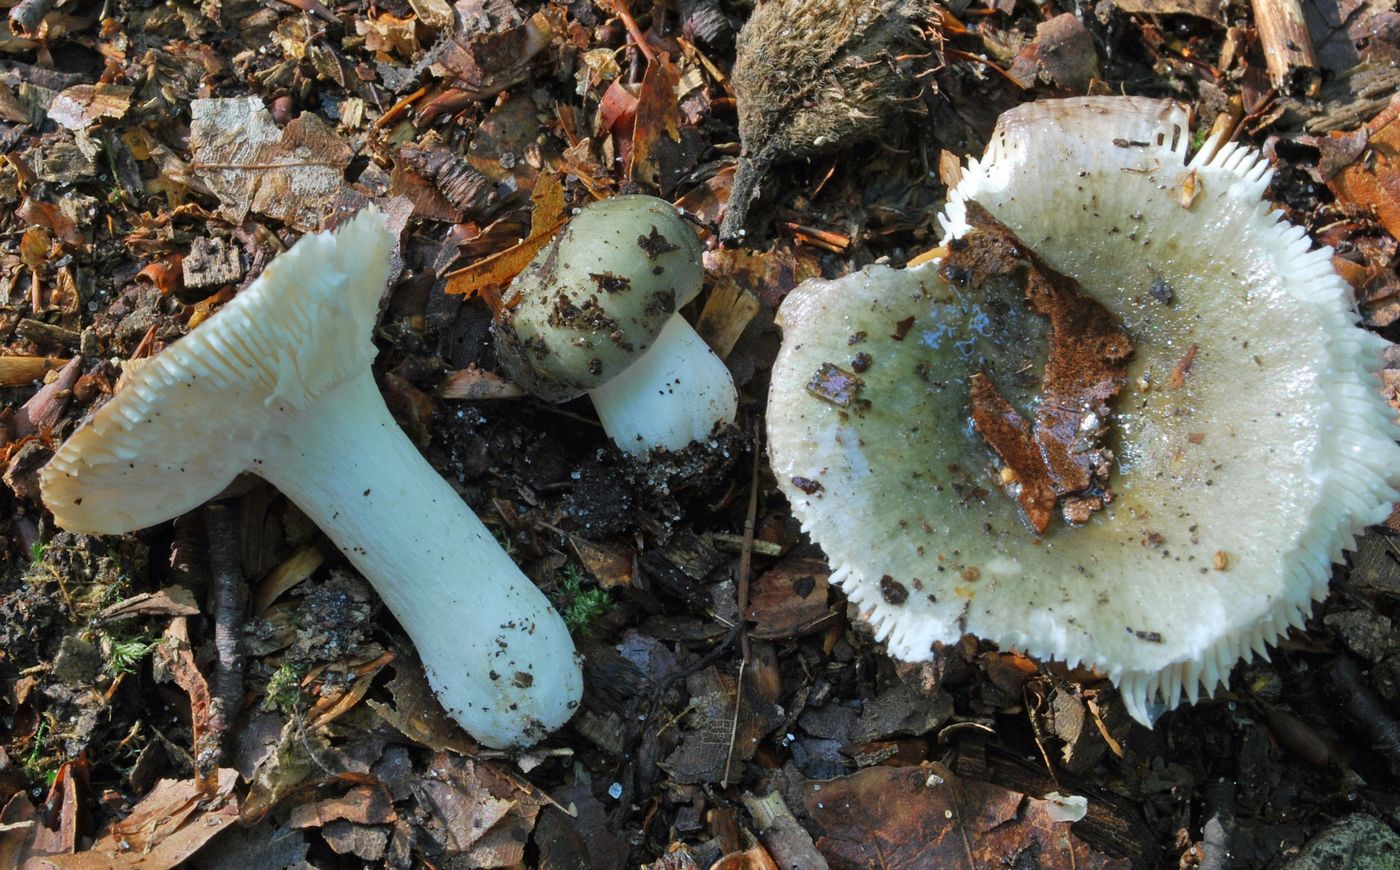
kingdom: Fungi
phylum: Basidiomycota
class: Agaricomycetes
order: Russulales
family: Russulaceae
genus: Russula
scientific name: Russula parazurea
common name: blågrå skørhat
